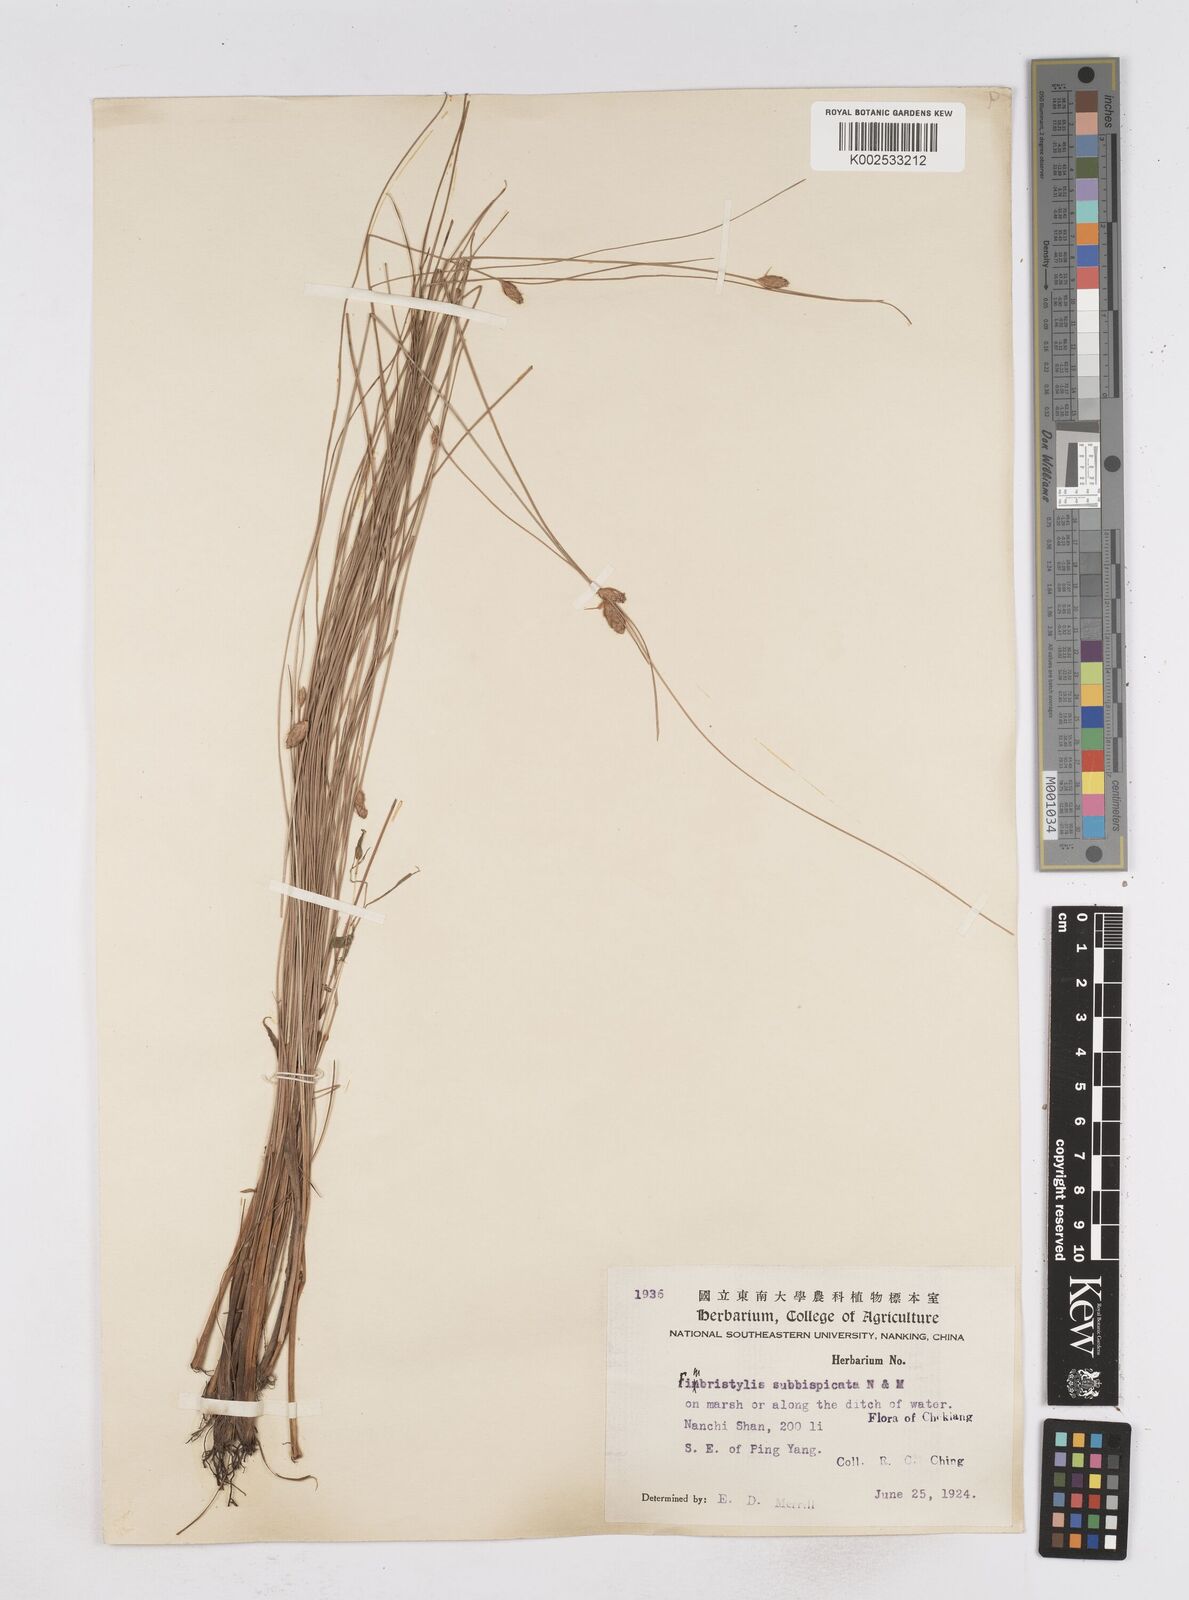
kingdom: Plantae
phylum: Tracheophyta
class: Liliopsida
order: Poales
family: Cyperaceae
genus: Fimbristylis
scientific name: Fimbristylis tristachya
